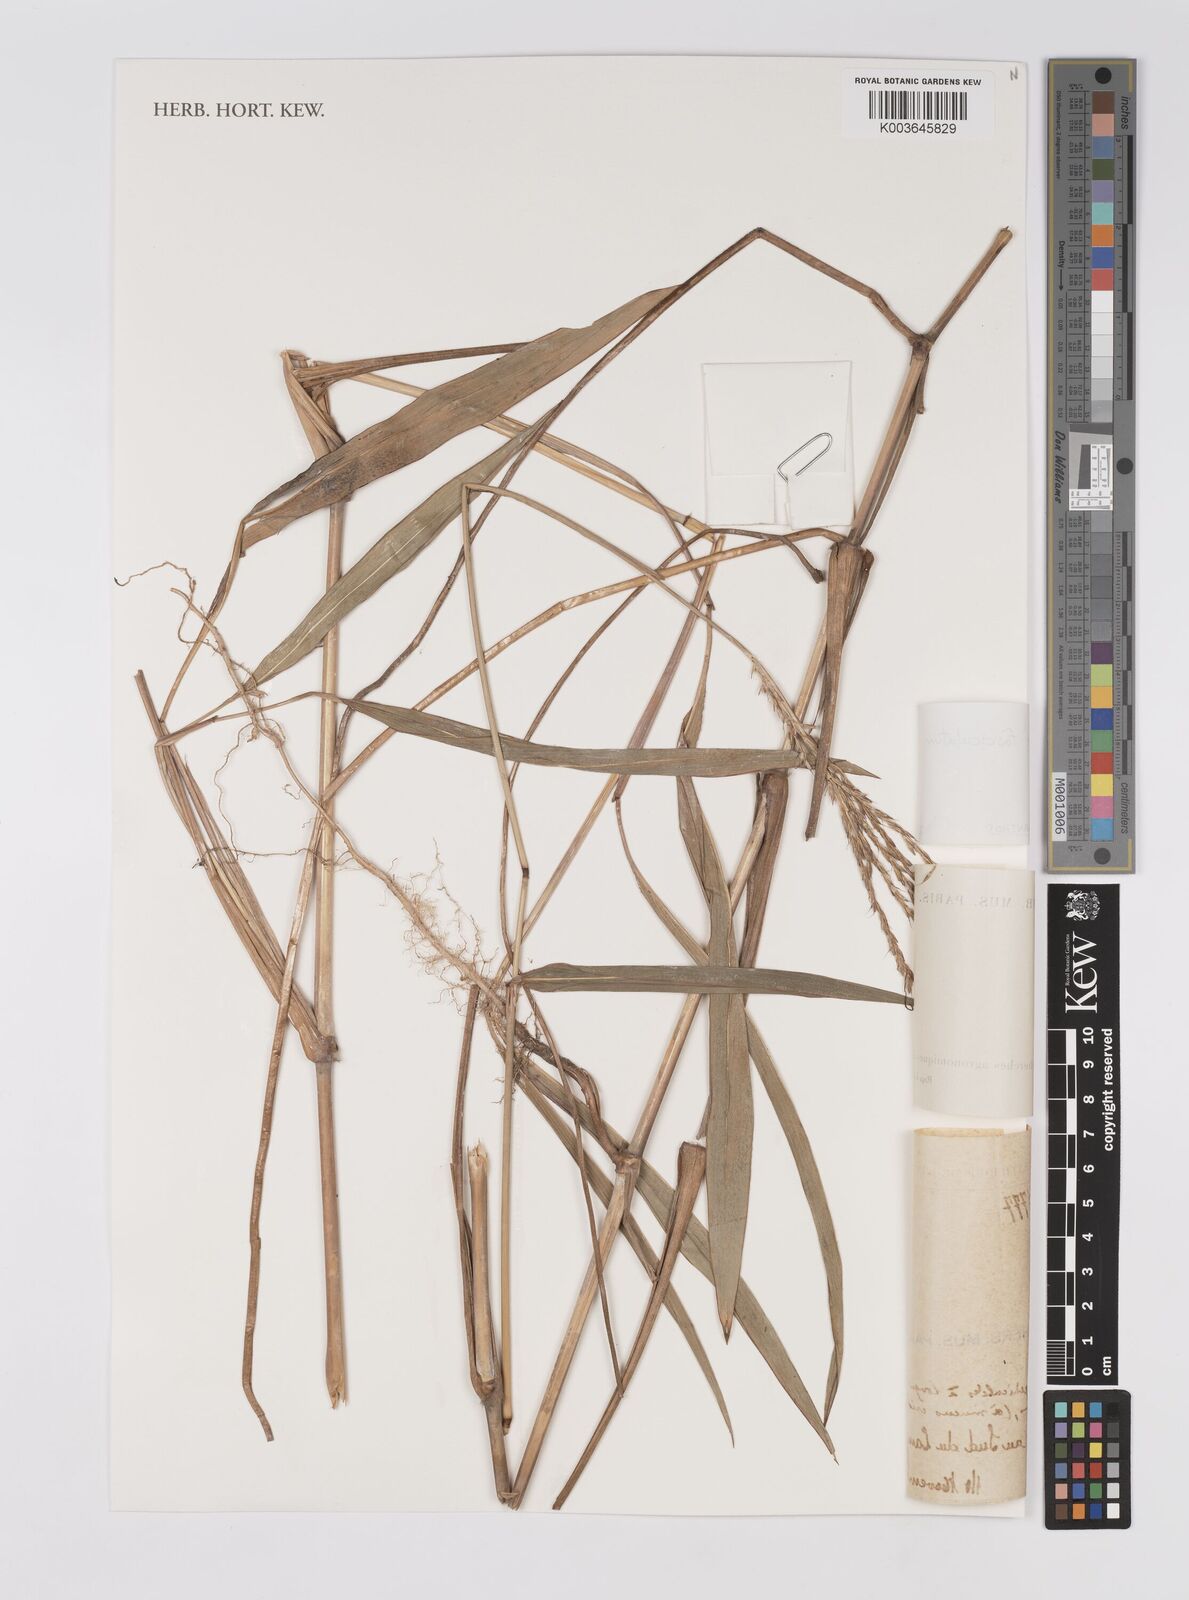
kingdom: Plantae
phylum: Tracheophyta
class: Liliopsida
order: Poales
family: Poaceae
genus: Microstegium
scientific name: Microstegium fasciculatum
